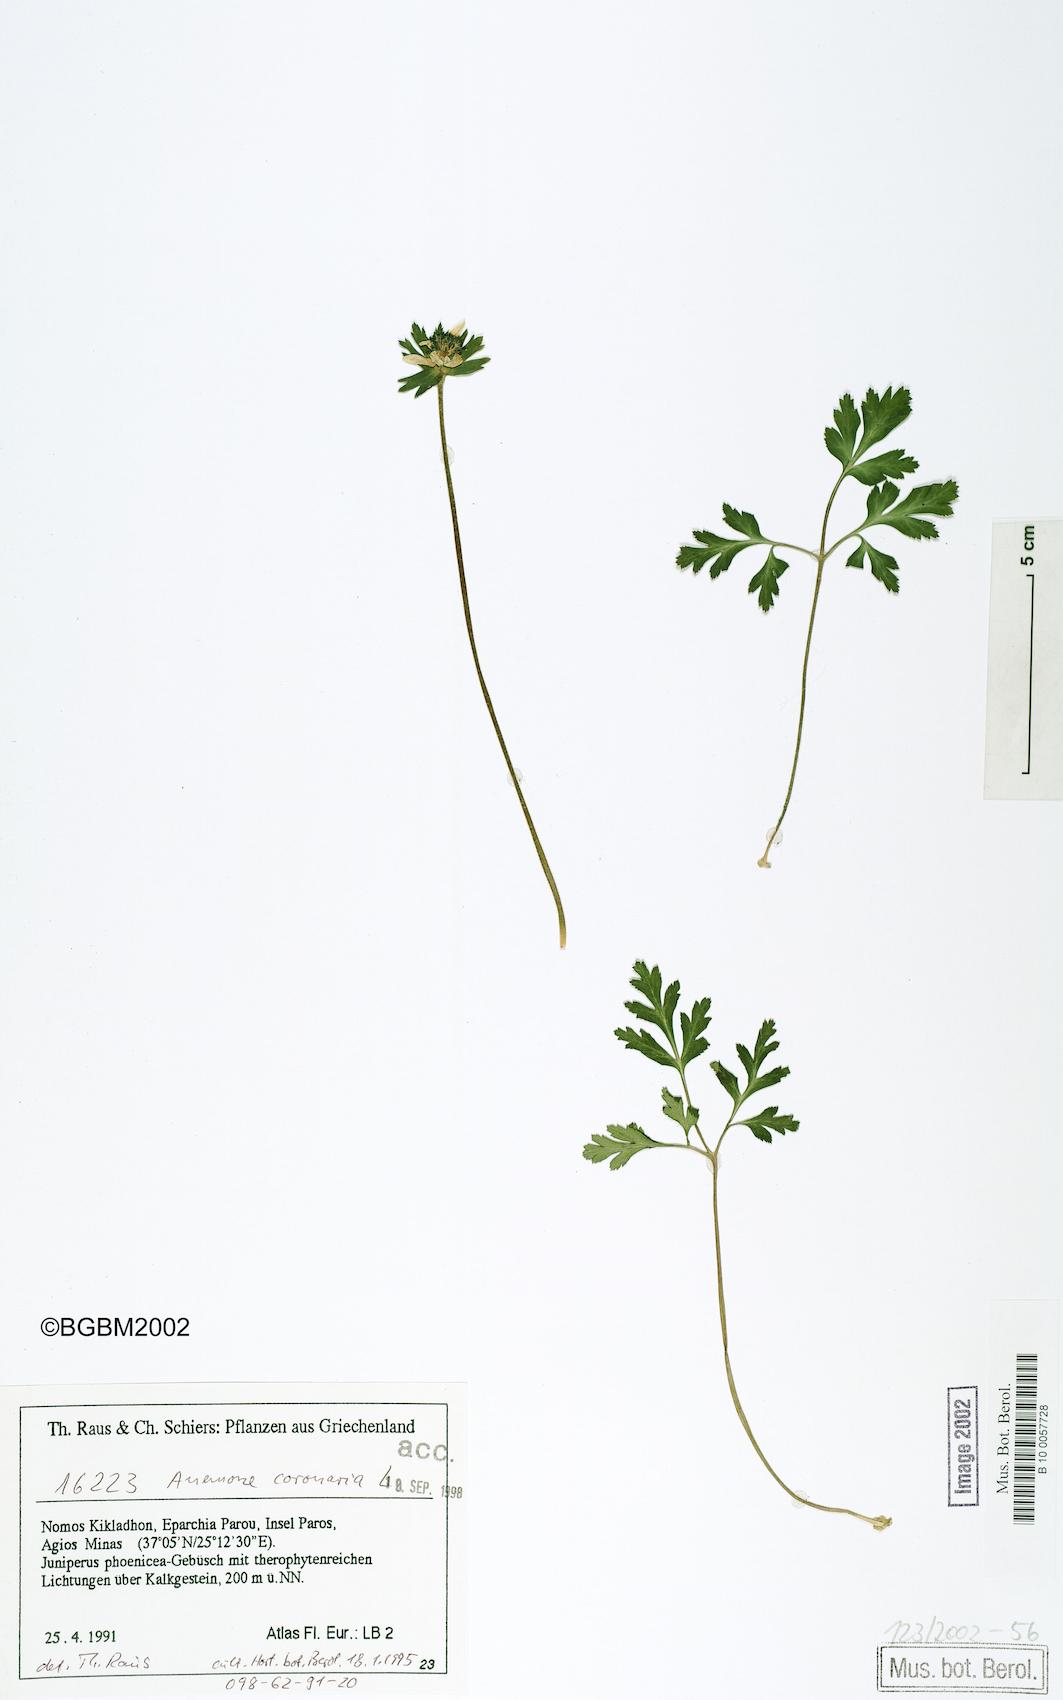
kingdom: Plantae
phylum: Tracheophyta
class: Magnoliopsida
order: Ranunculales
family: Ranunculaceae
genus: Anemone
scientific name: Anemone coronaria
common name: Poppy anemone
